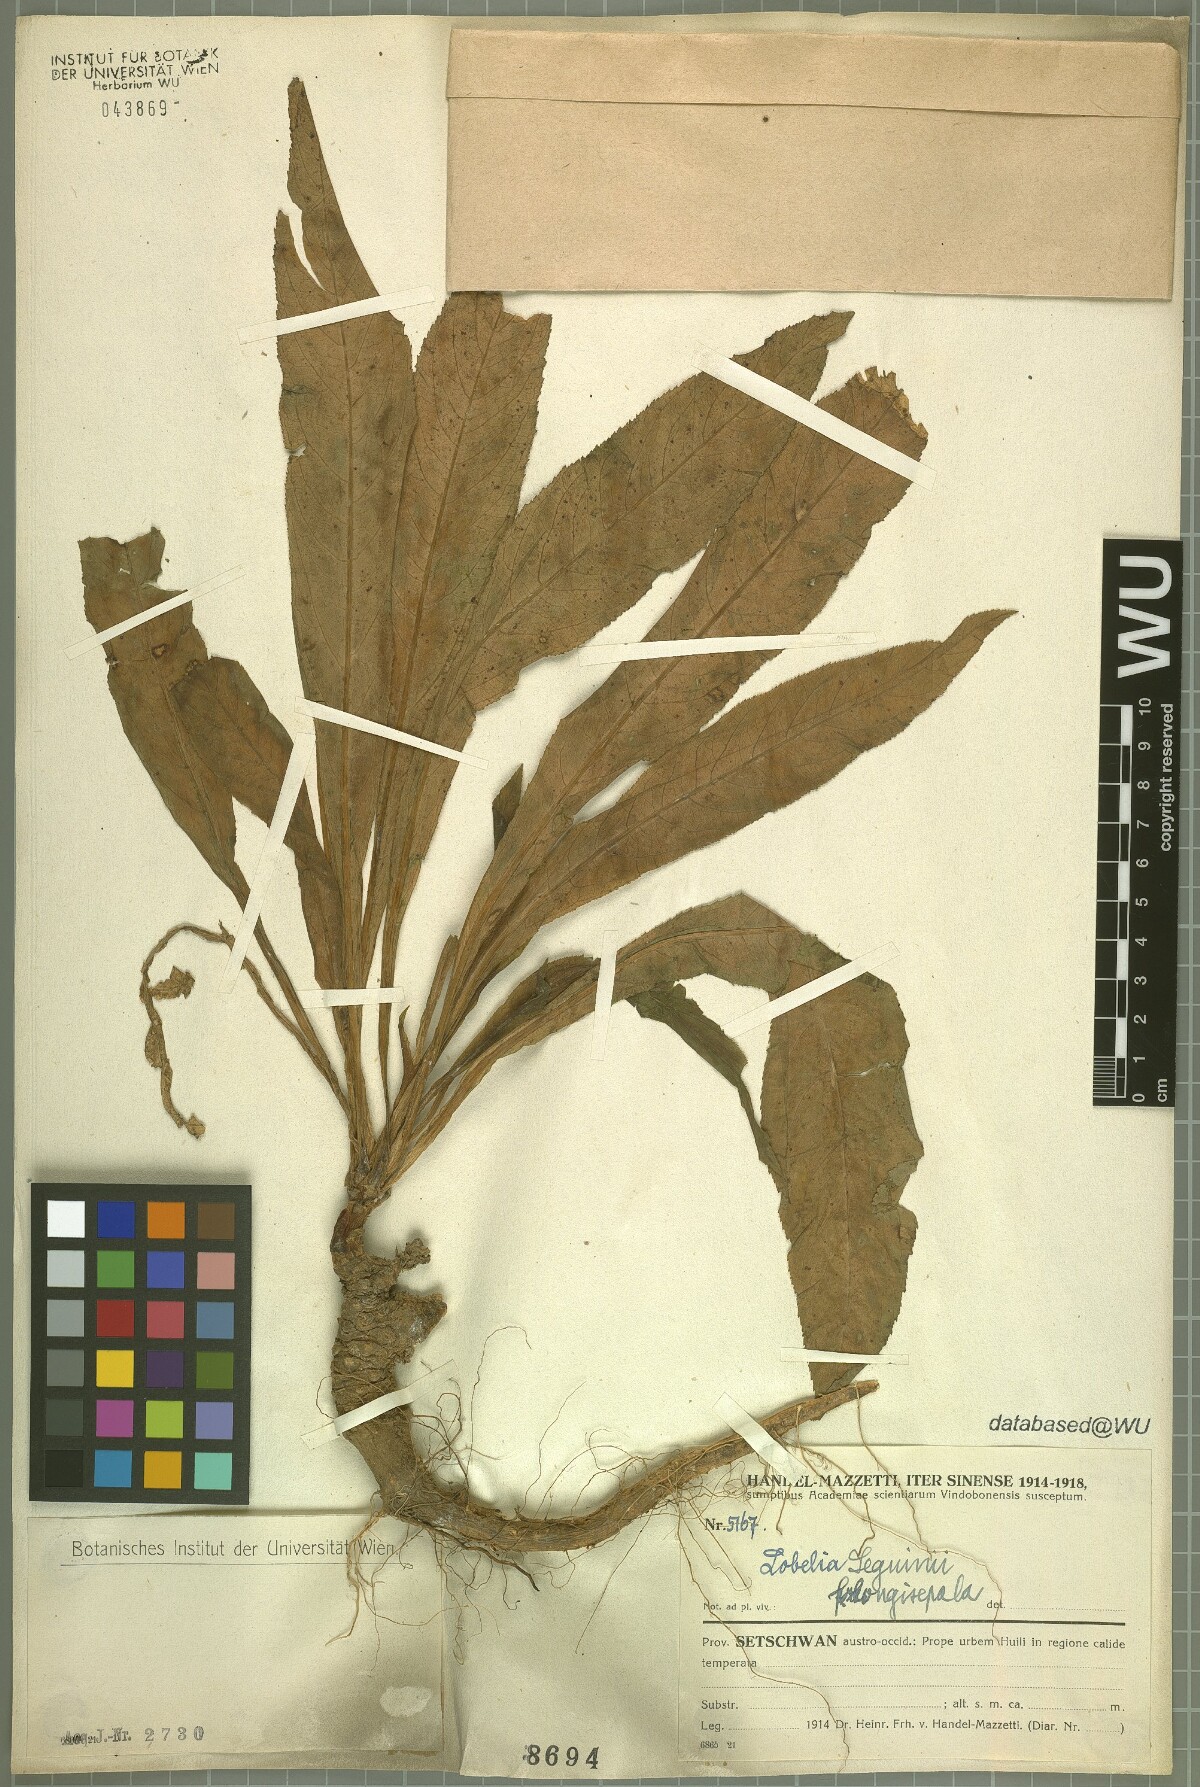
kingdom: Plantae
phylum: Tracheophyta
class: Magnoliopsida
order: Asterales
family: Campanulaceae
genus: Lobelia
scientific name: Lobelia seguinii
